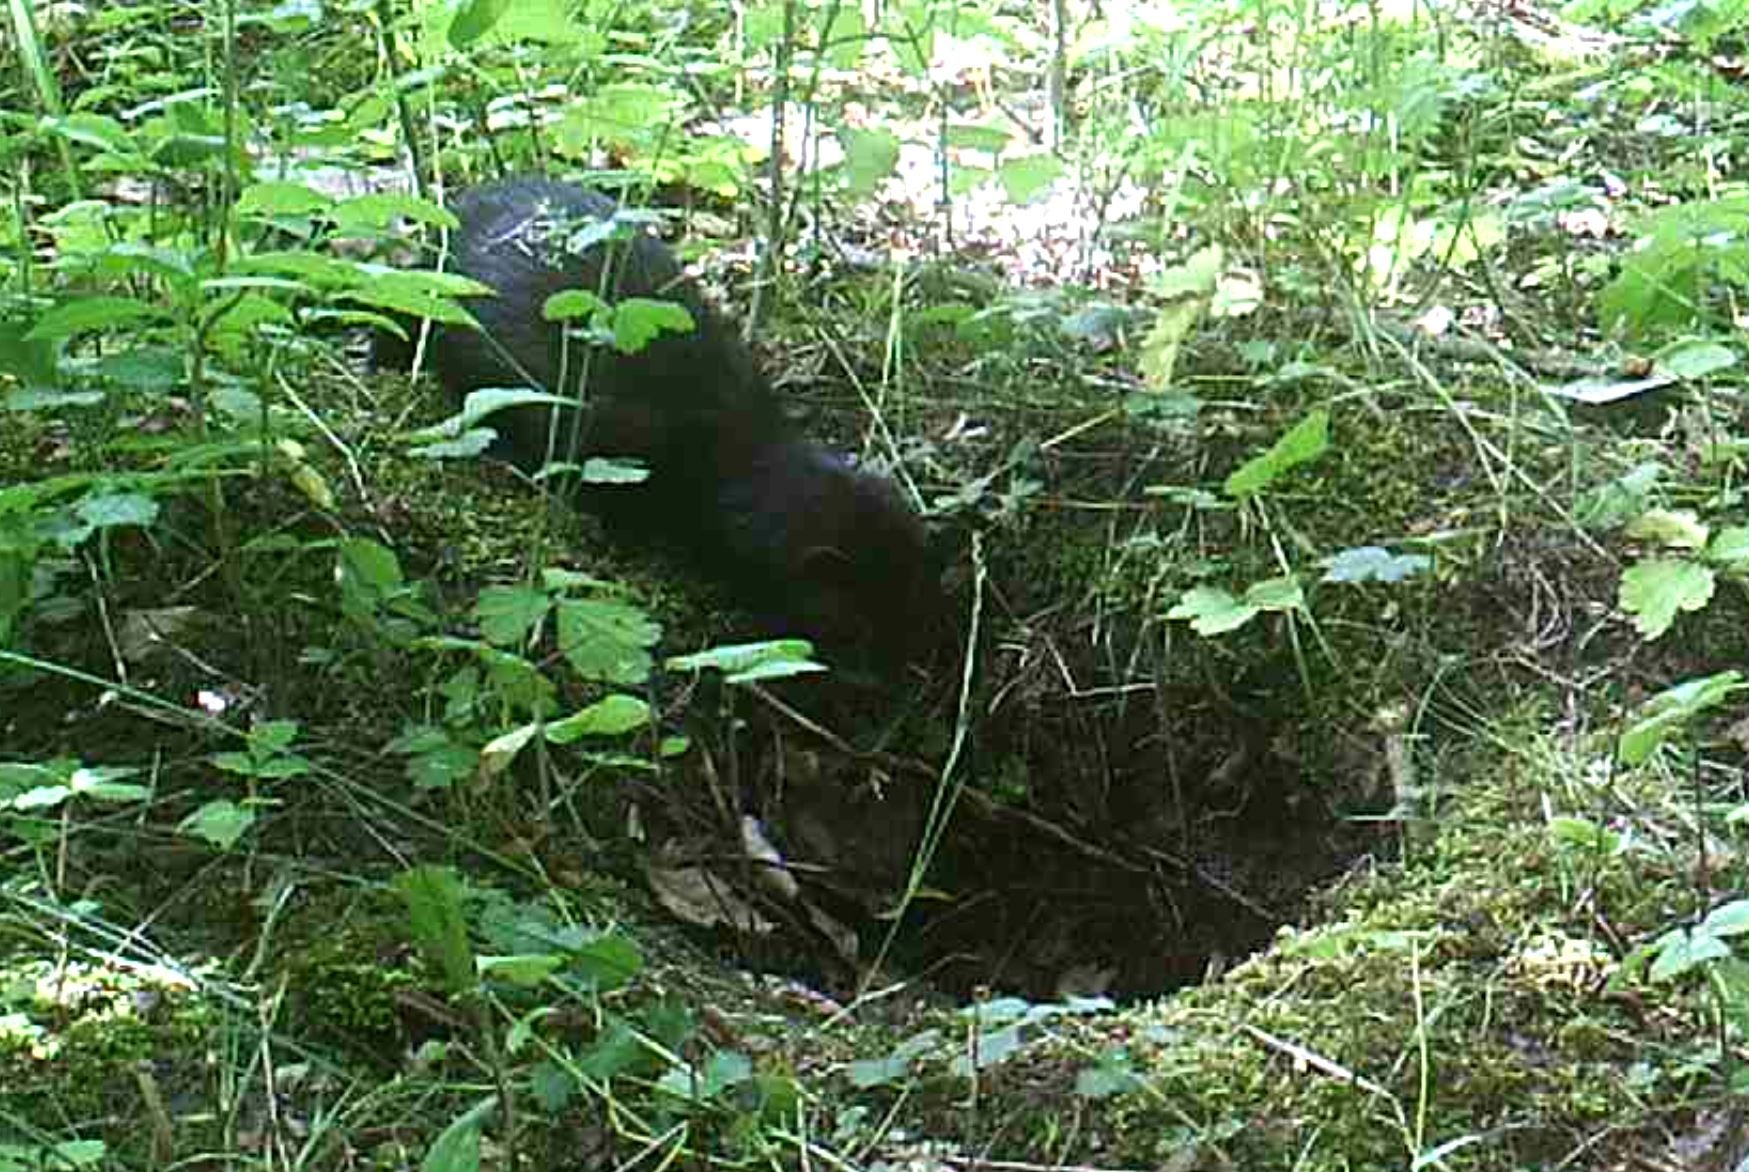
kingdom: Animalia
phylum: Chordata
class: Mammalia
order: Carnivora
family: Mustelidae
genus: Mustela
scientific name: Mustela vison
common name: Mink
